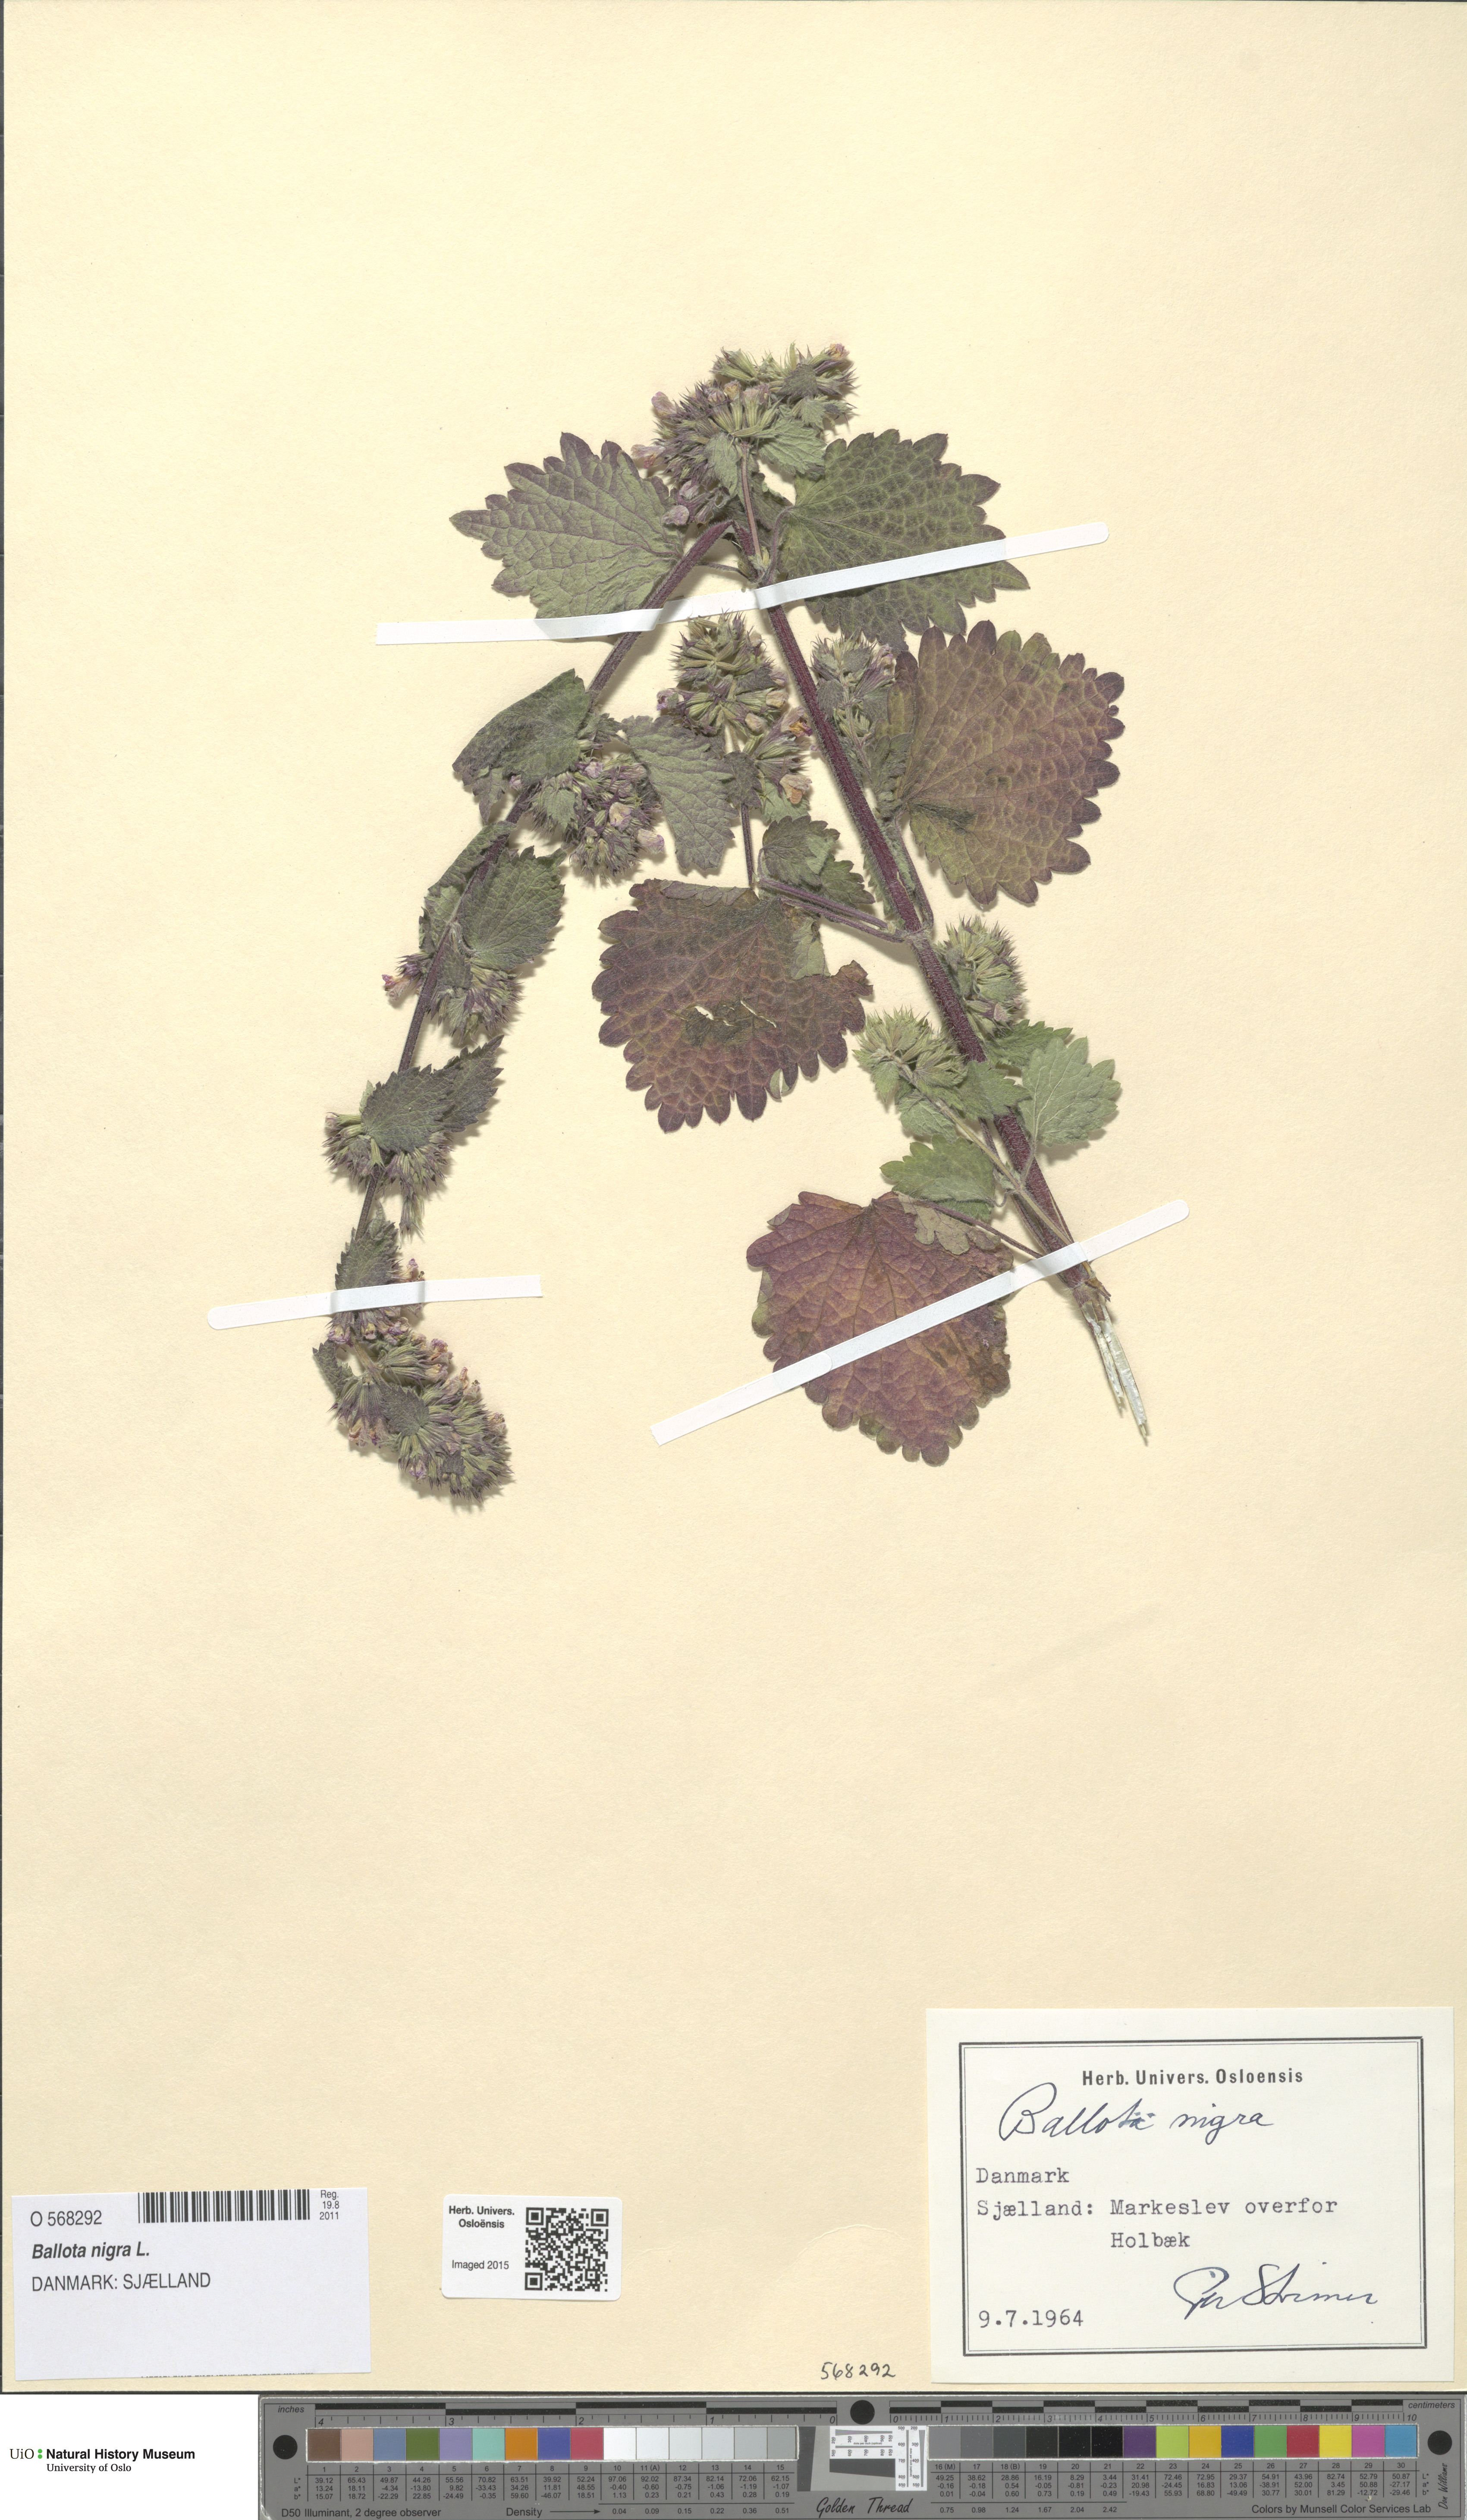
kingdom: Plantae
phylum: Tracheophyta
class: Magnoliopsida
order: Lamiales
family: Lamiaceae
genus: Ballota
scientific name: Ballota nigra
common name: Black horehound
